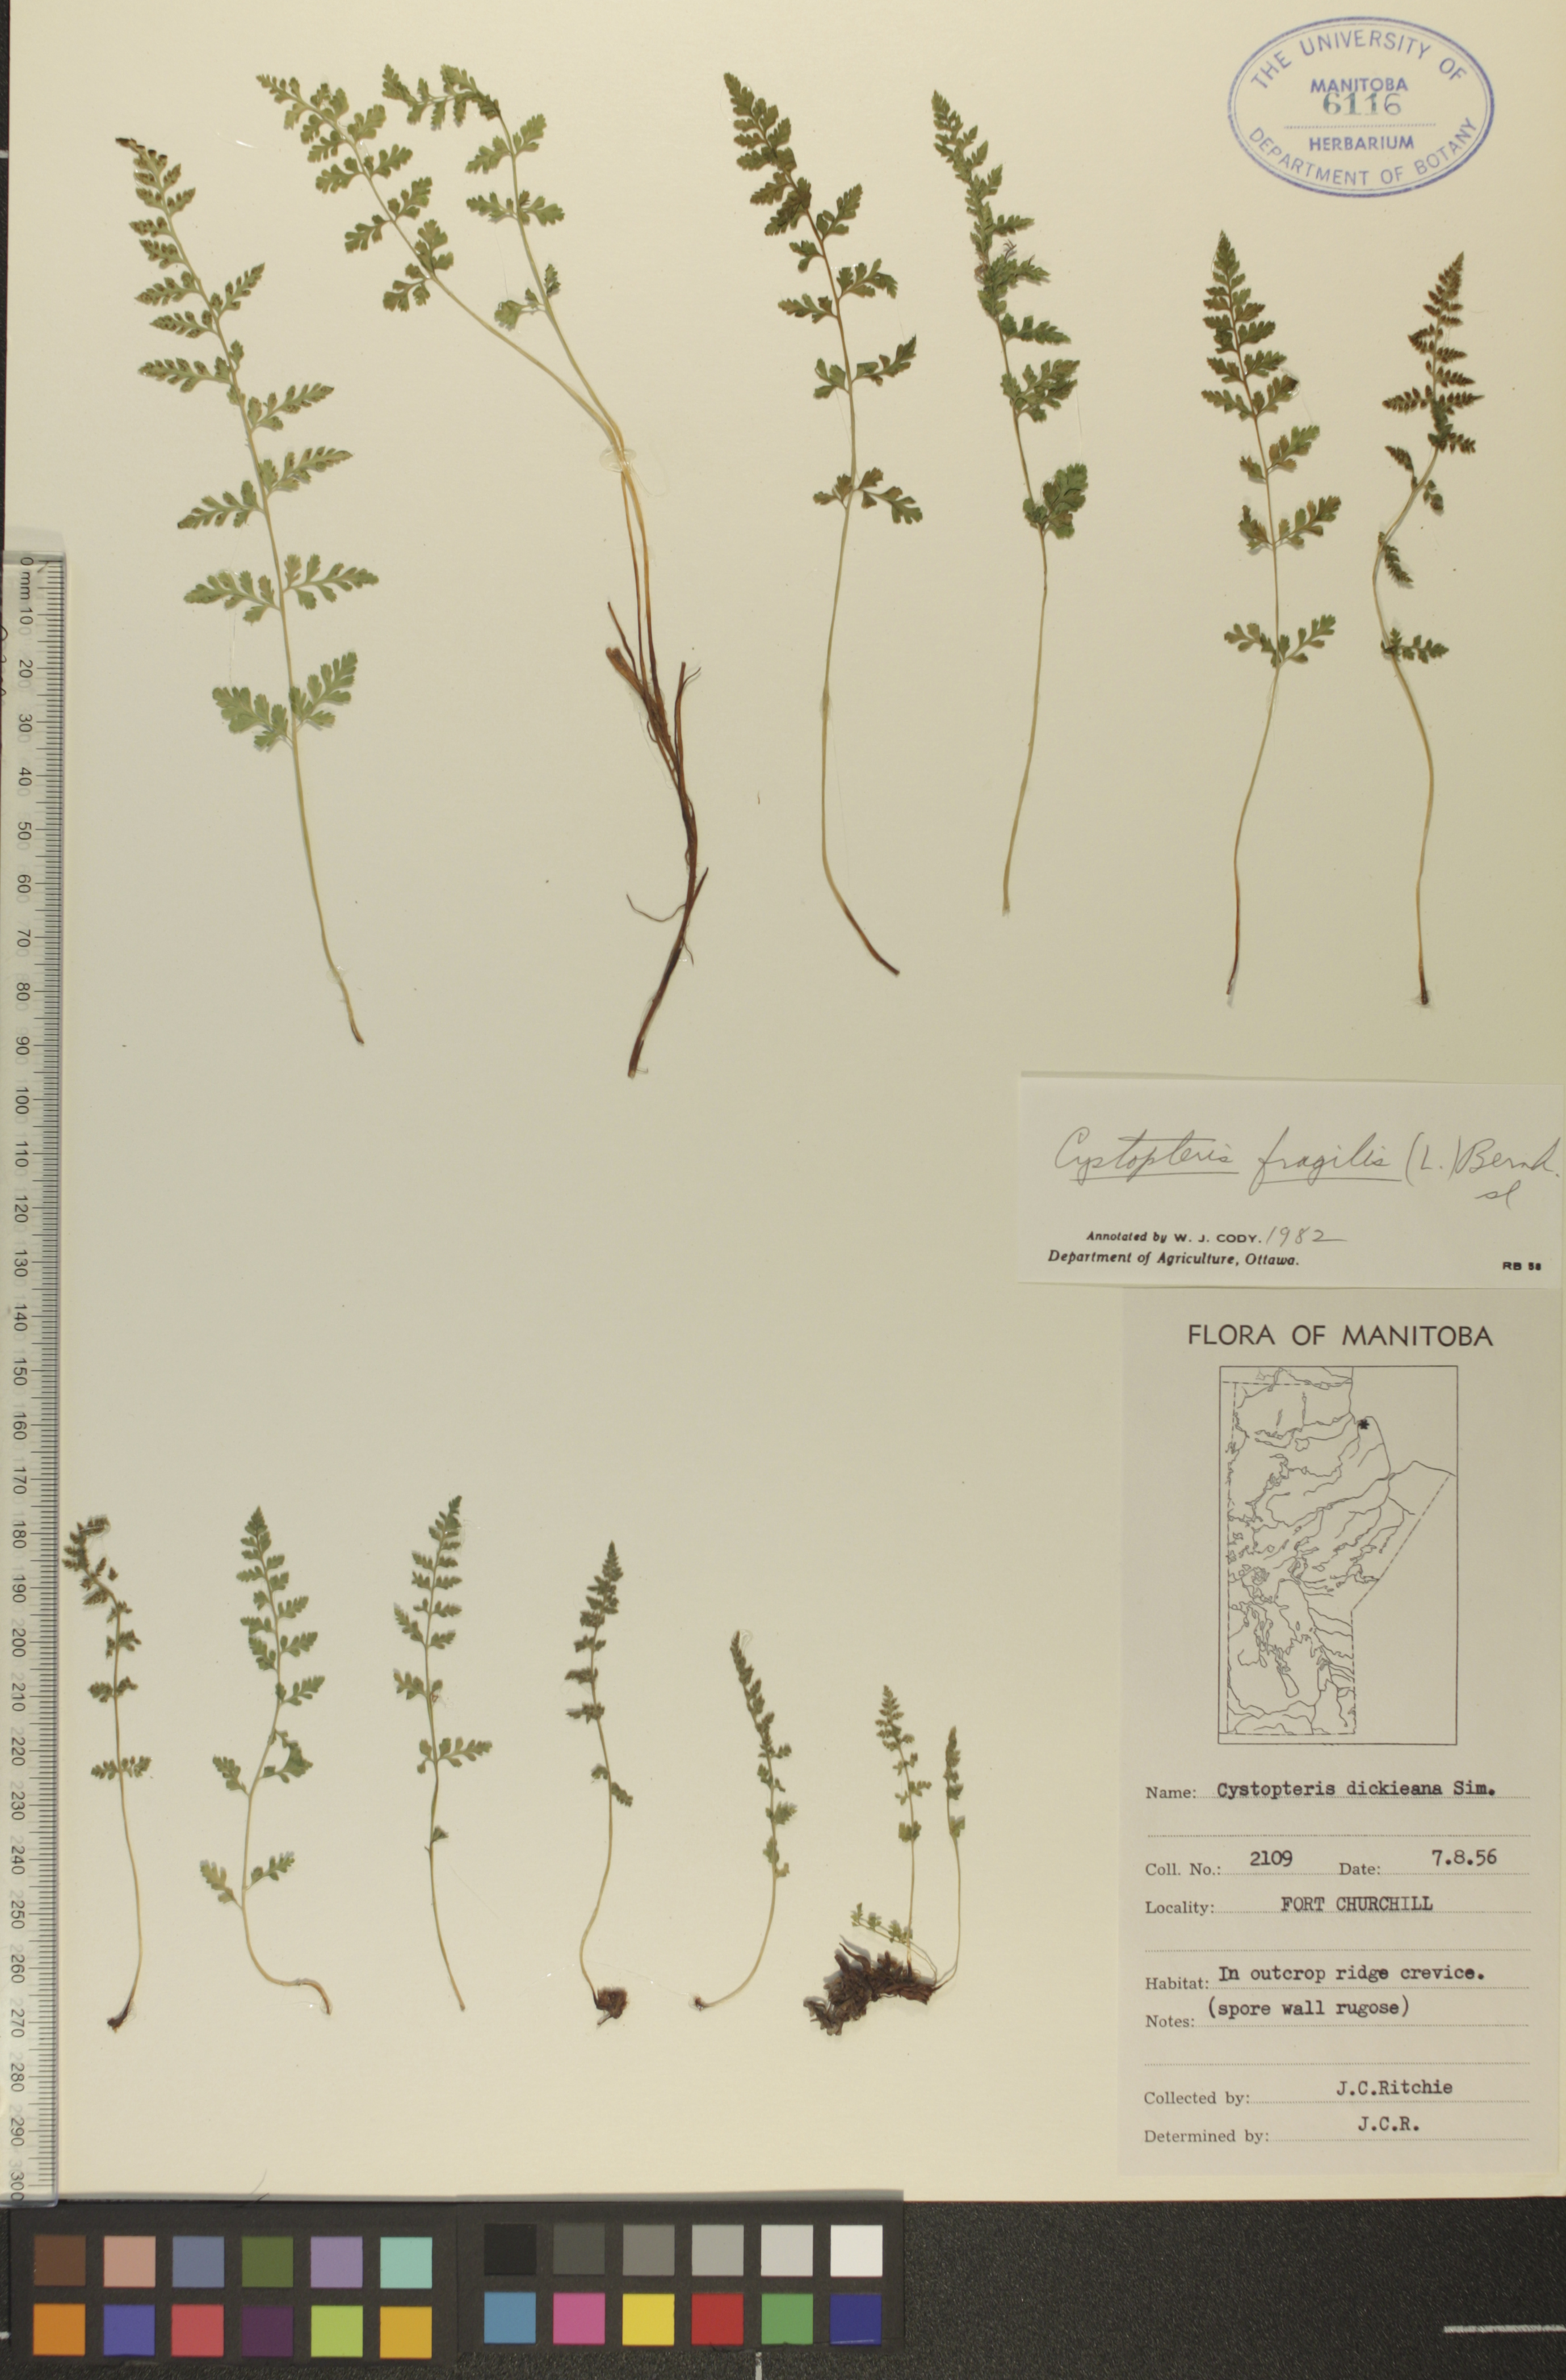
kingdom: Plantae
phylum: Tracheophyta
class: Polypodiopsida
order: Polypodiales
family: Cystopteridaceae
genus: Cystopteris
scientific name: Cystopteris tenuis
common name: Mackay's brittle fern
